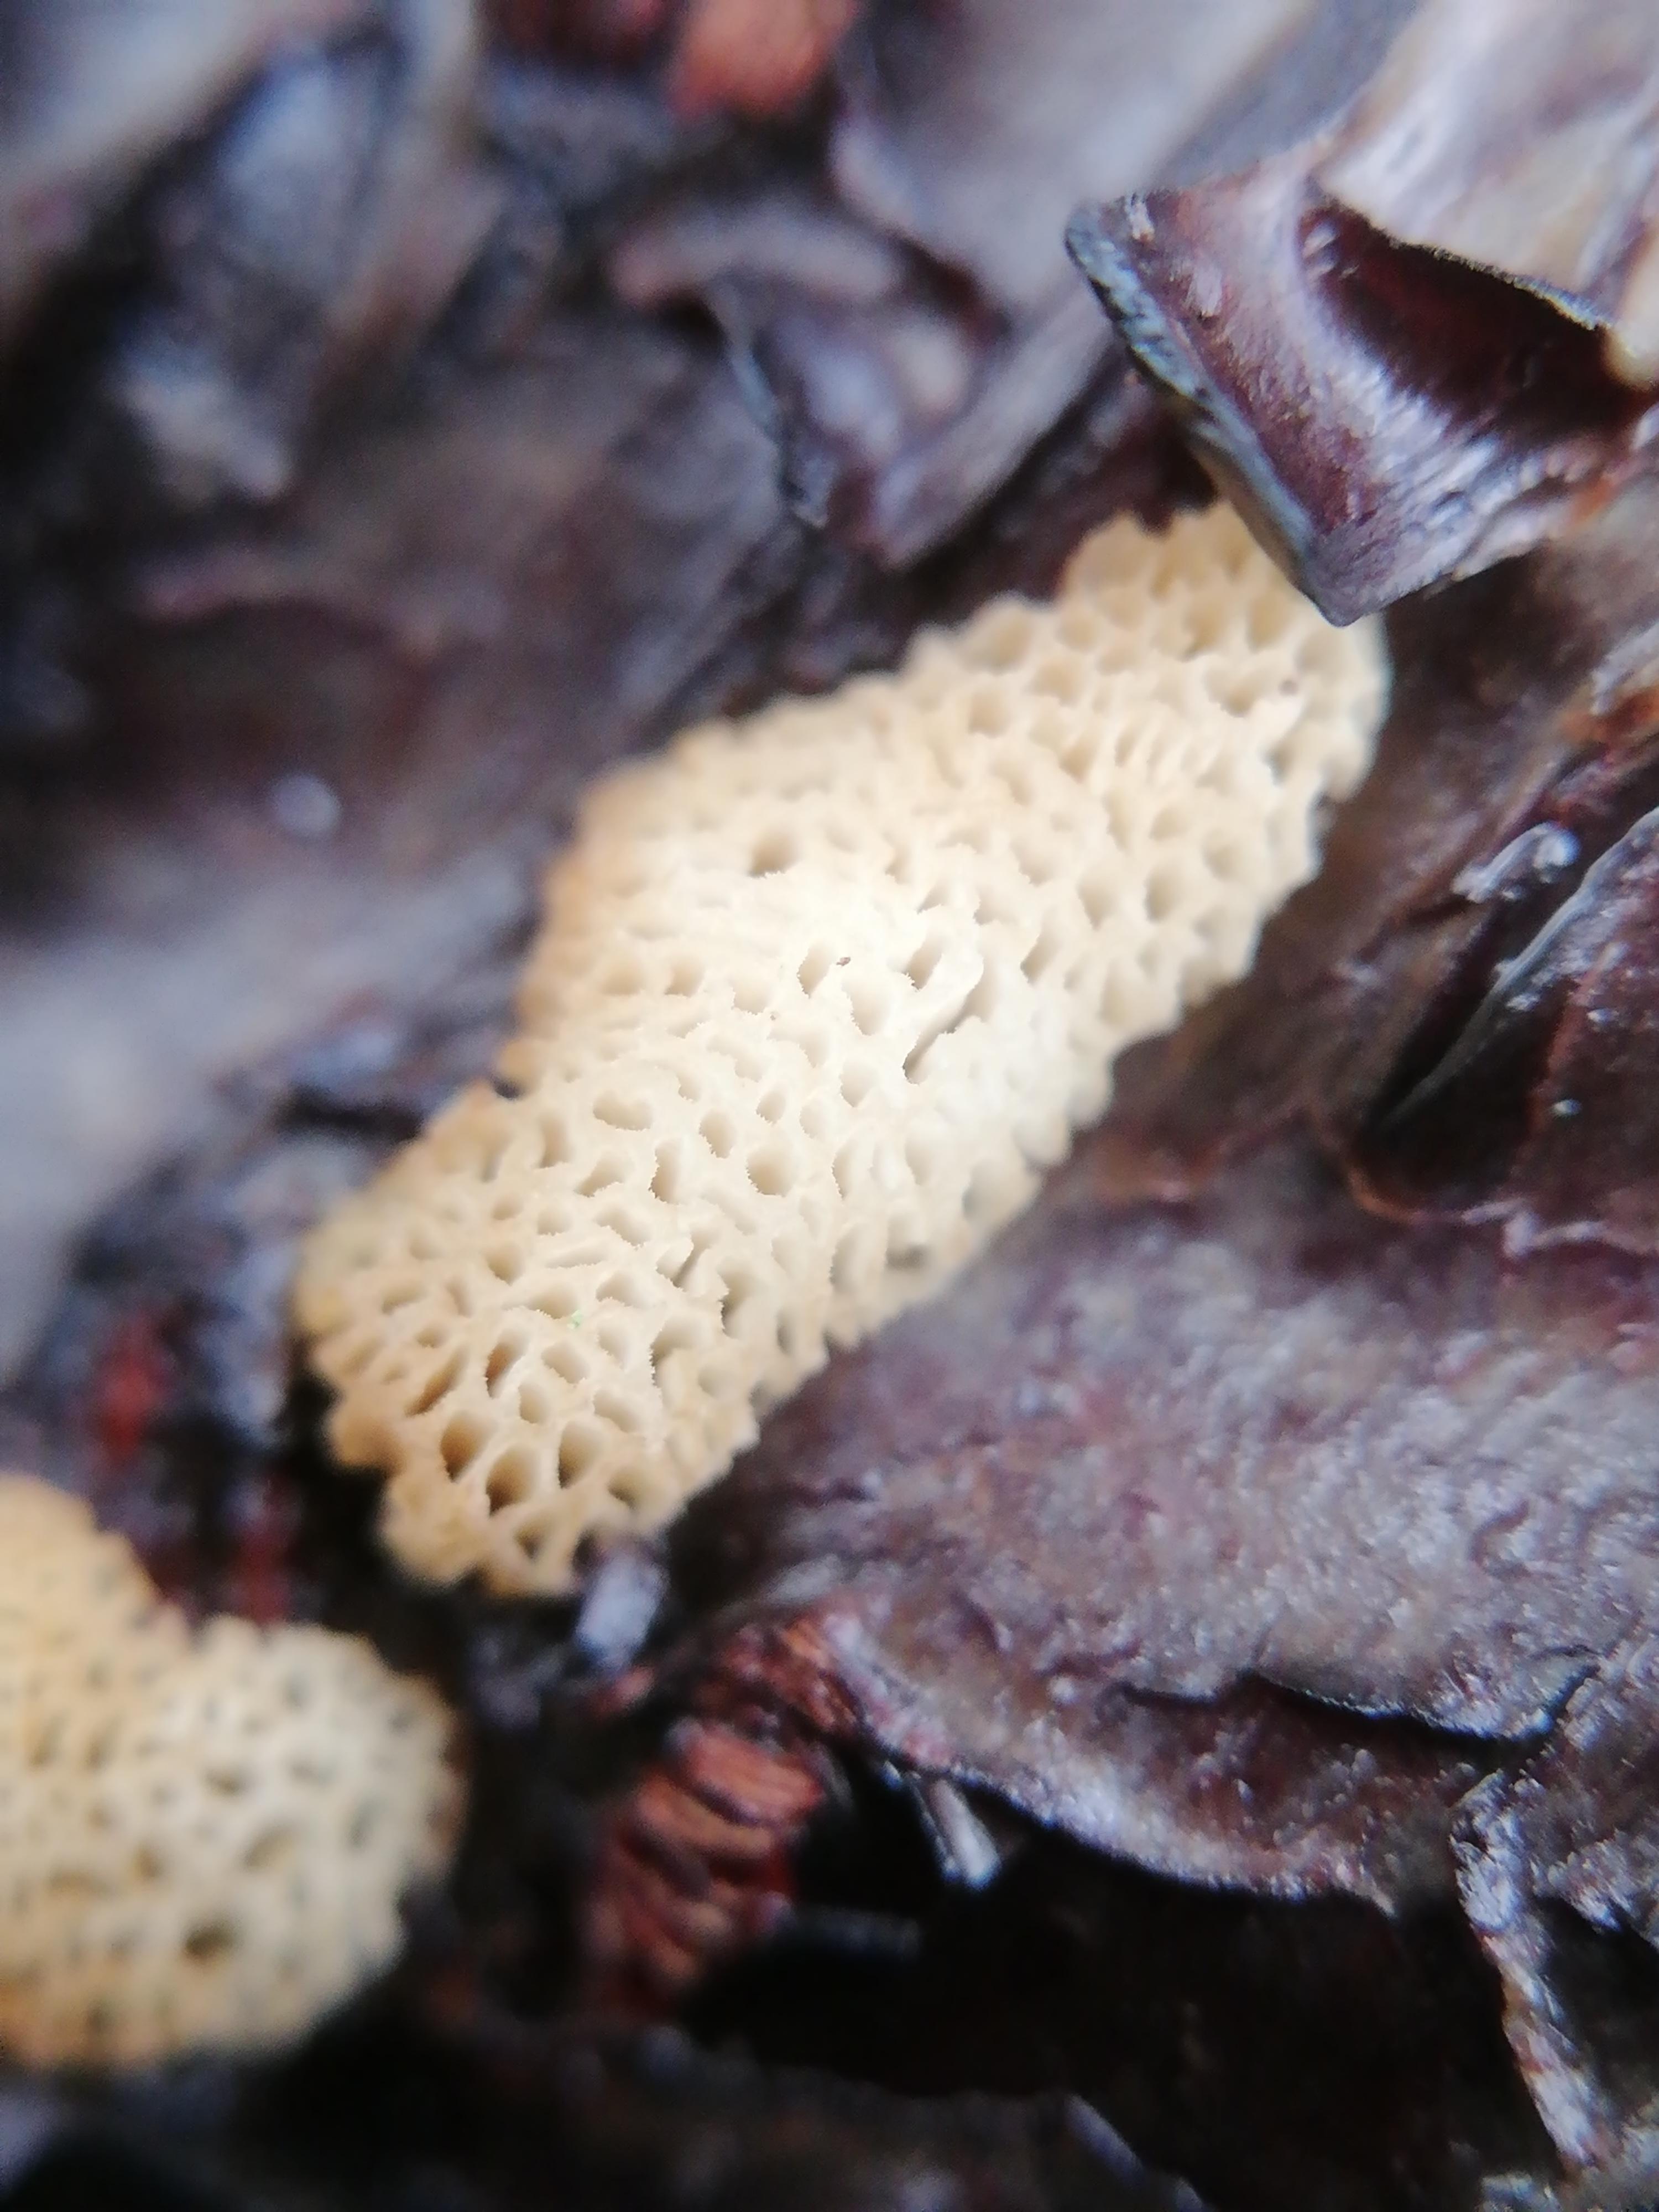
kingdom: Fungi
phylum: Basidiomycota
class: Agaricomycetes
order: Polyporales
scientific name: Polyporales
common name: poresvampordenen
